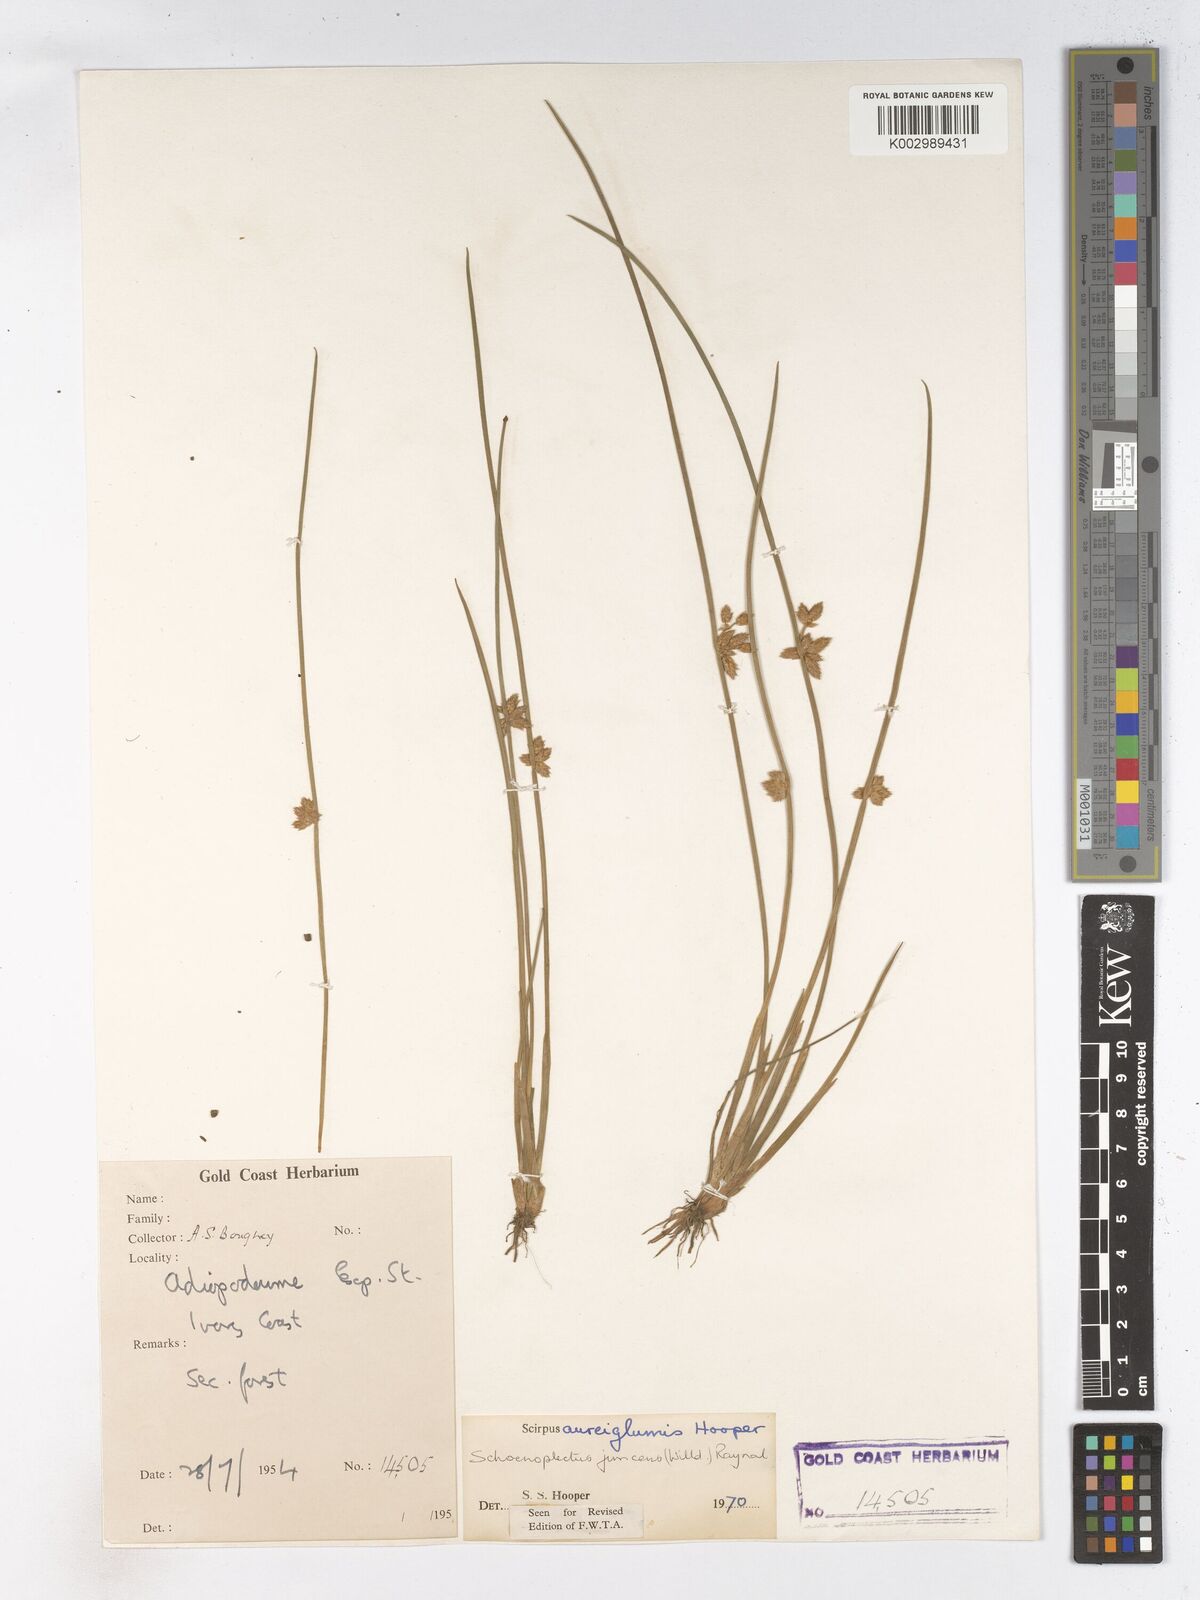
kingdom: Plantae
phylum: Tracheophyta
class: Liliopsida
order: Poales
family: Cyperaceae
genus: Schoenoplectiella
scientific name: Schoenoplectiella juncea
